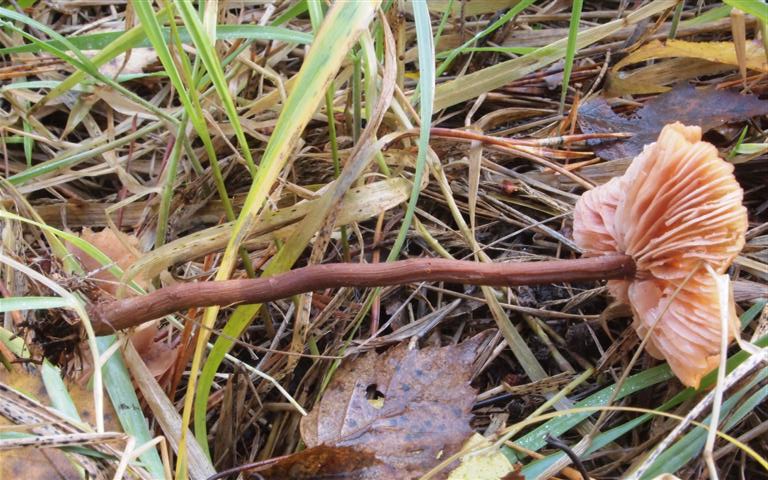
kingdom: Fungi
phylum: Basidiomycota
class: Agaricomycetes
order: Agaricales
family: Hydnangiaceae
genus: Laccaria
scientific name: Laccaria proxima
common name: stor ametysthat
